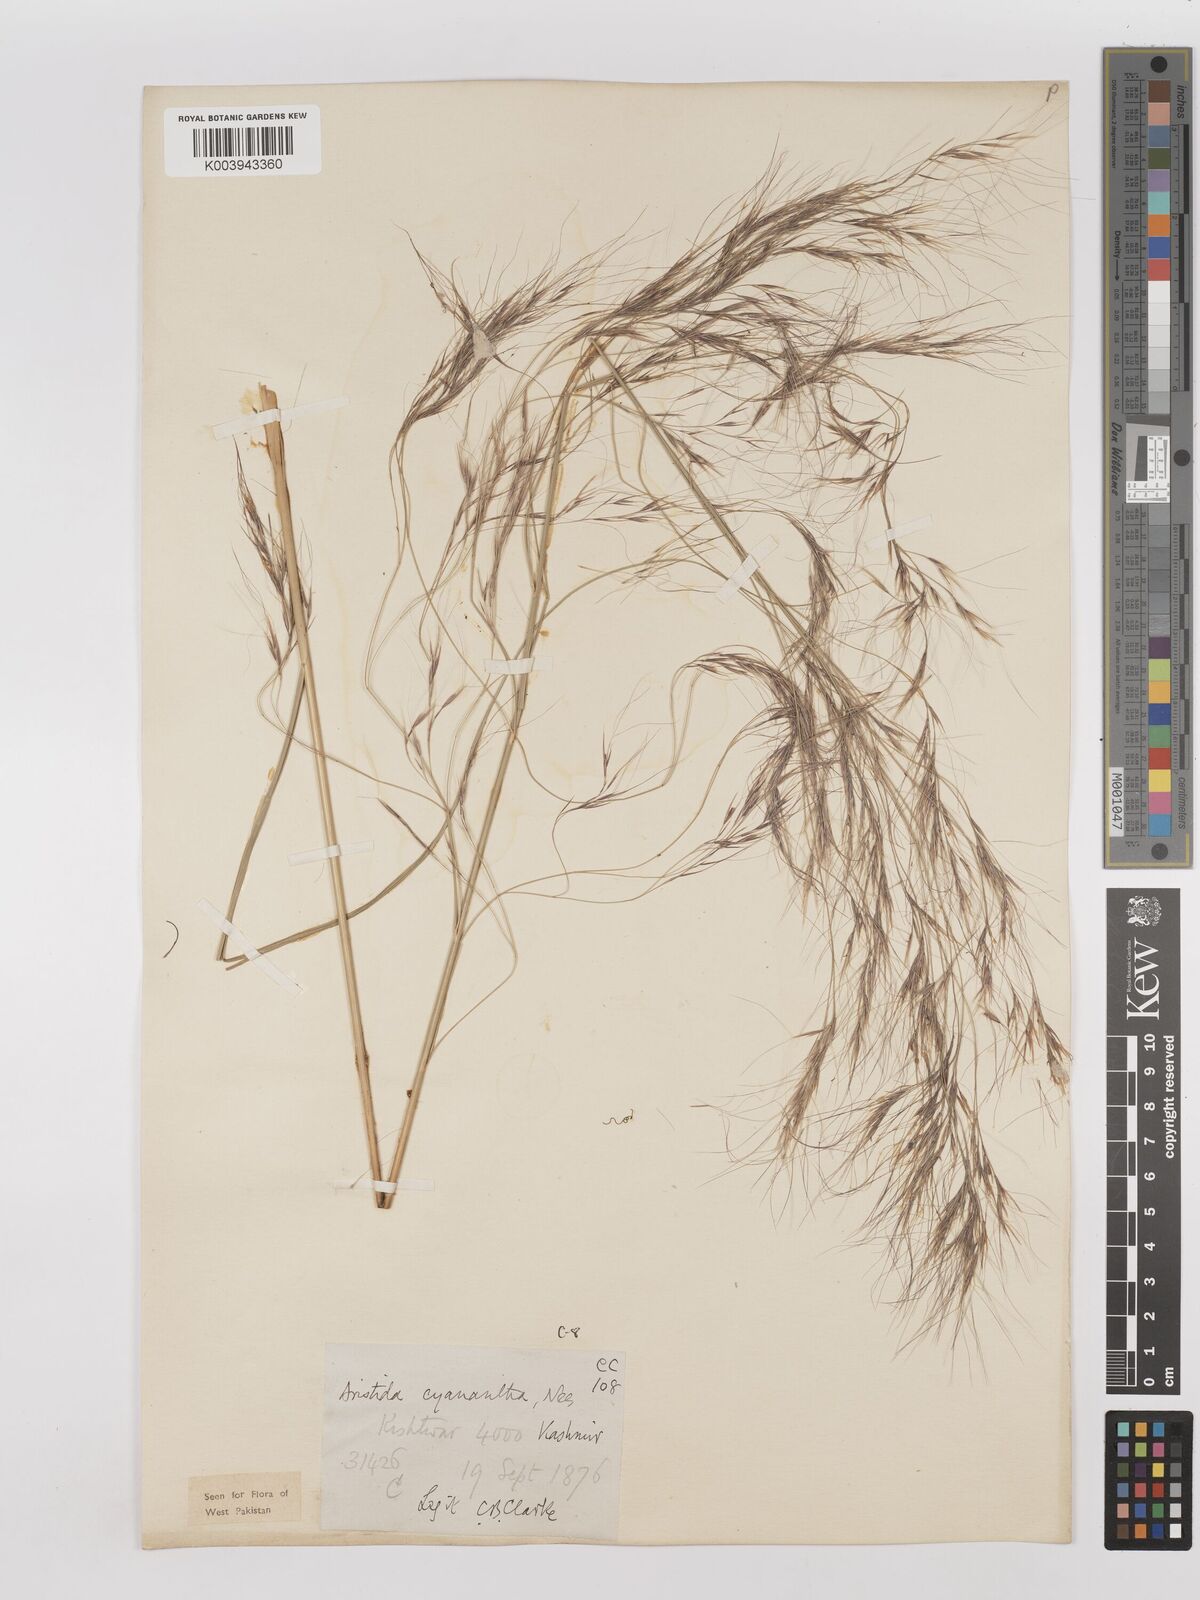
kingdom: Plantae
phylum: Tracheophyta
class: Liliopsida
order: Poales
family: Poaceae
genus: Aristida
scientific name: Aristida cyanantha
